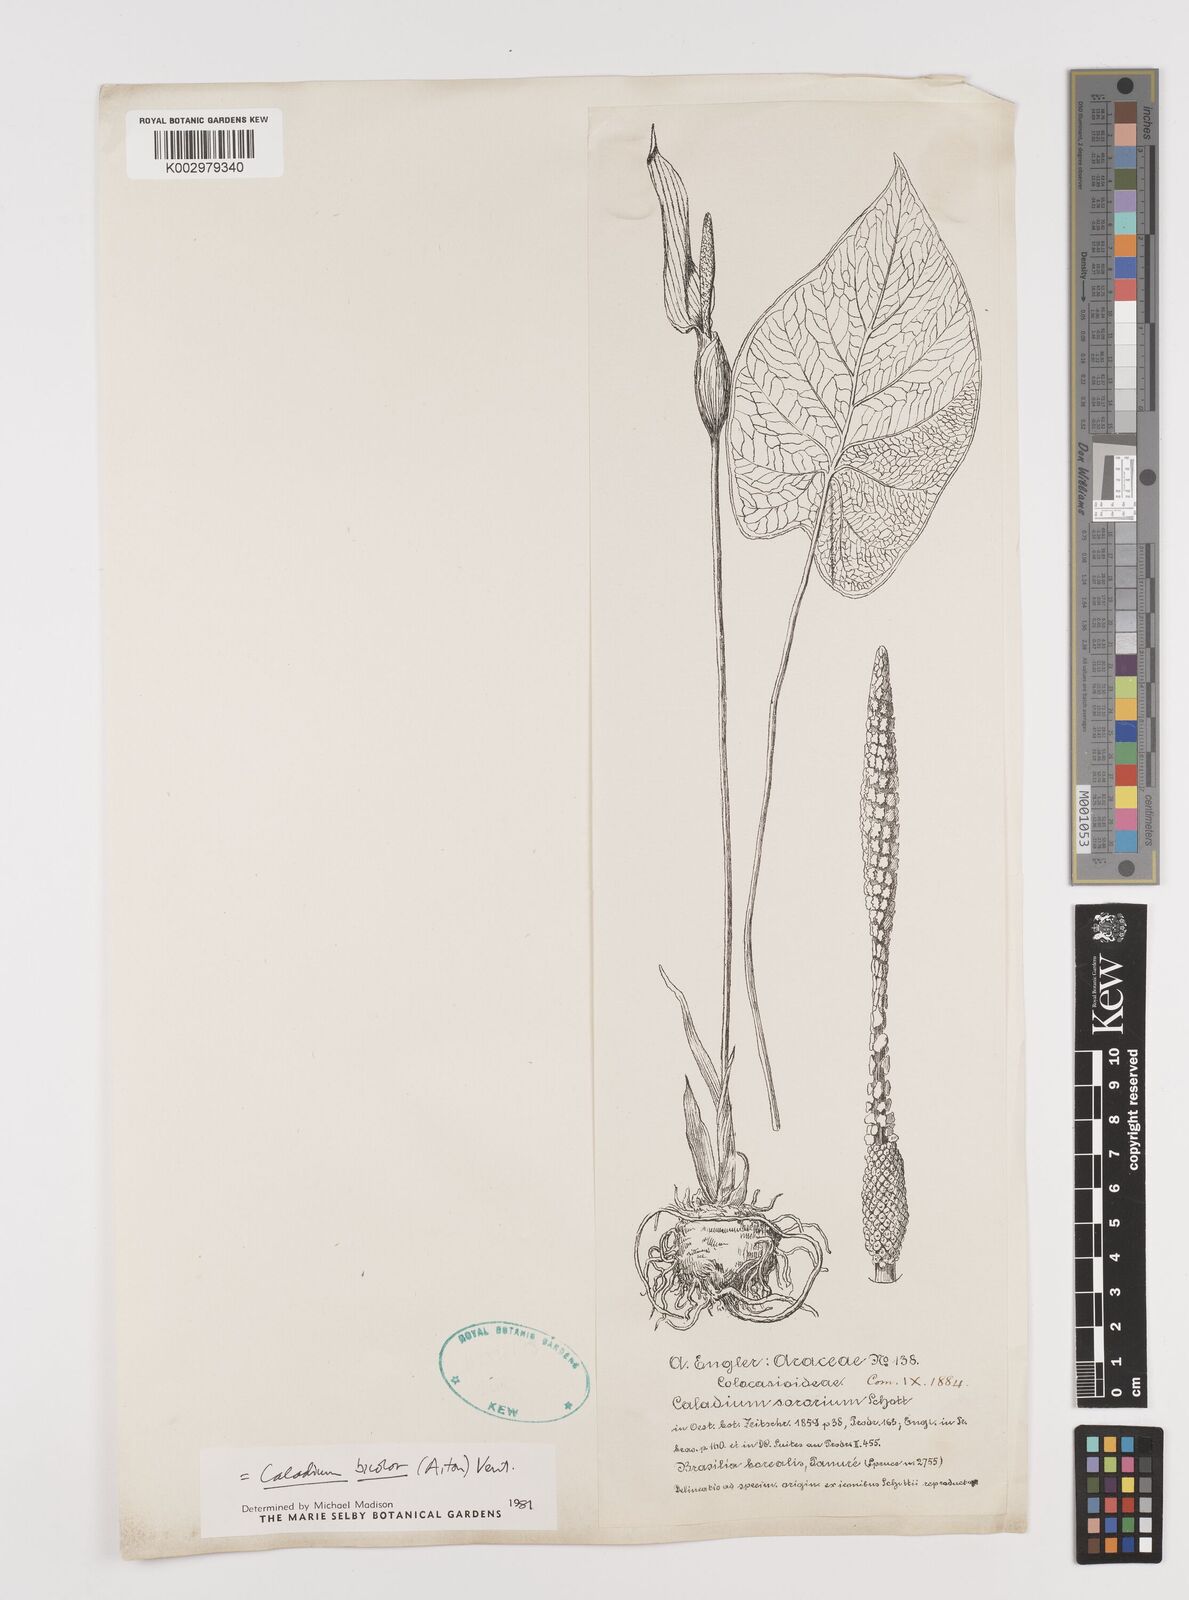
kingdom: Plantae
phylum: Tracheophyta
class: Liliopsida
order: Alismatales
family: Araceae
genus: Caladium
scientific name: Caladium bicolor
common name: Artist's pallet
